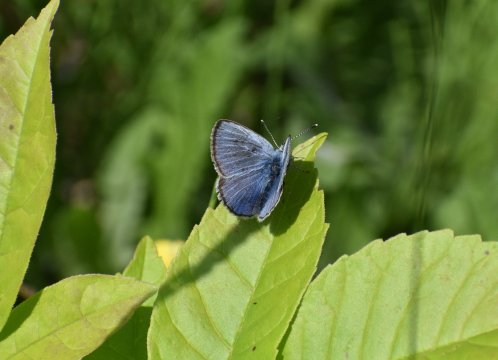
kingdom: Animalia
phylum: Arthropoda
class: Insecta
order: Lepidoptera
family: Lycaenidae
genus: Glaucopsyche
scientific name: Glaucopsyche lygdamus
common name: Silvery Blue
